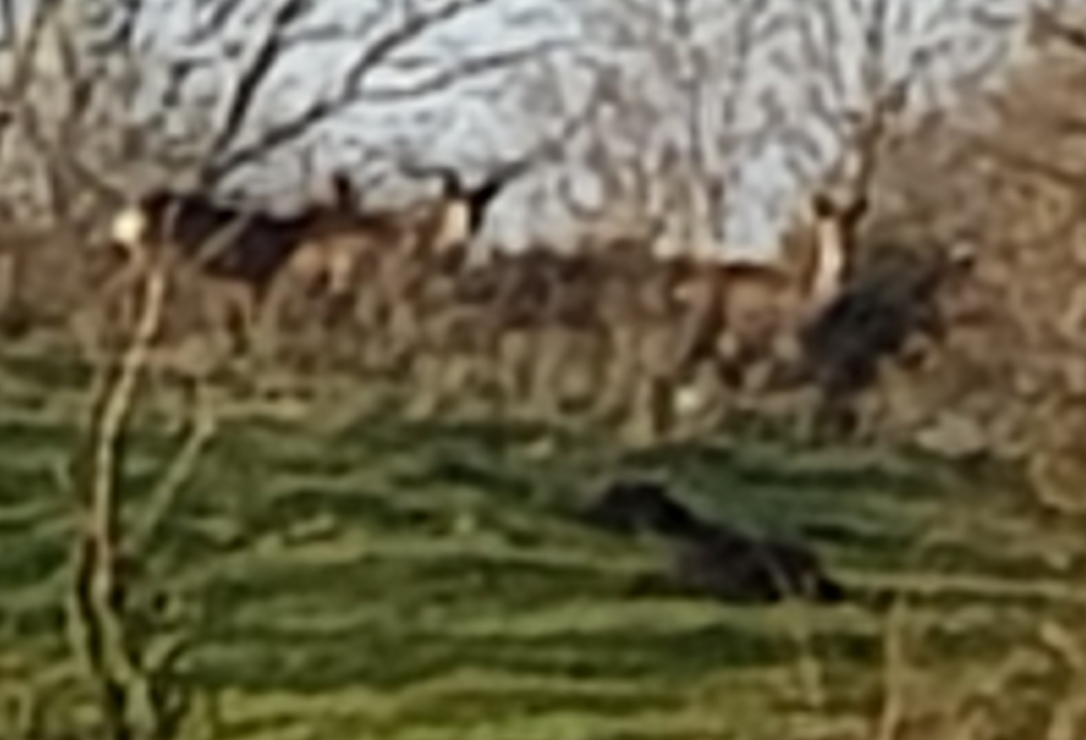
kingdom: Animalia
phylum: Chordata
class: Mammalia
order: Artiodactyla
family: Cervidae
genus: Capreolus
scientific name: Capreolus capreolus
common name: Rådyr
